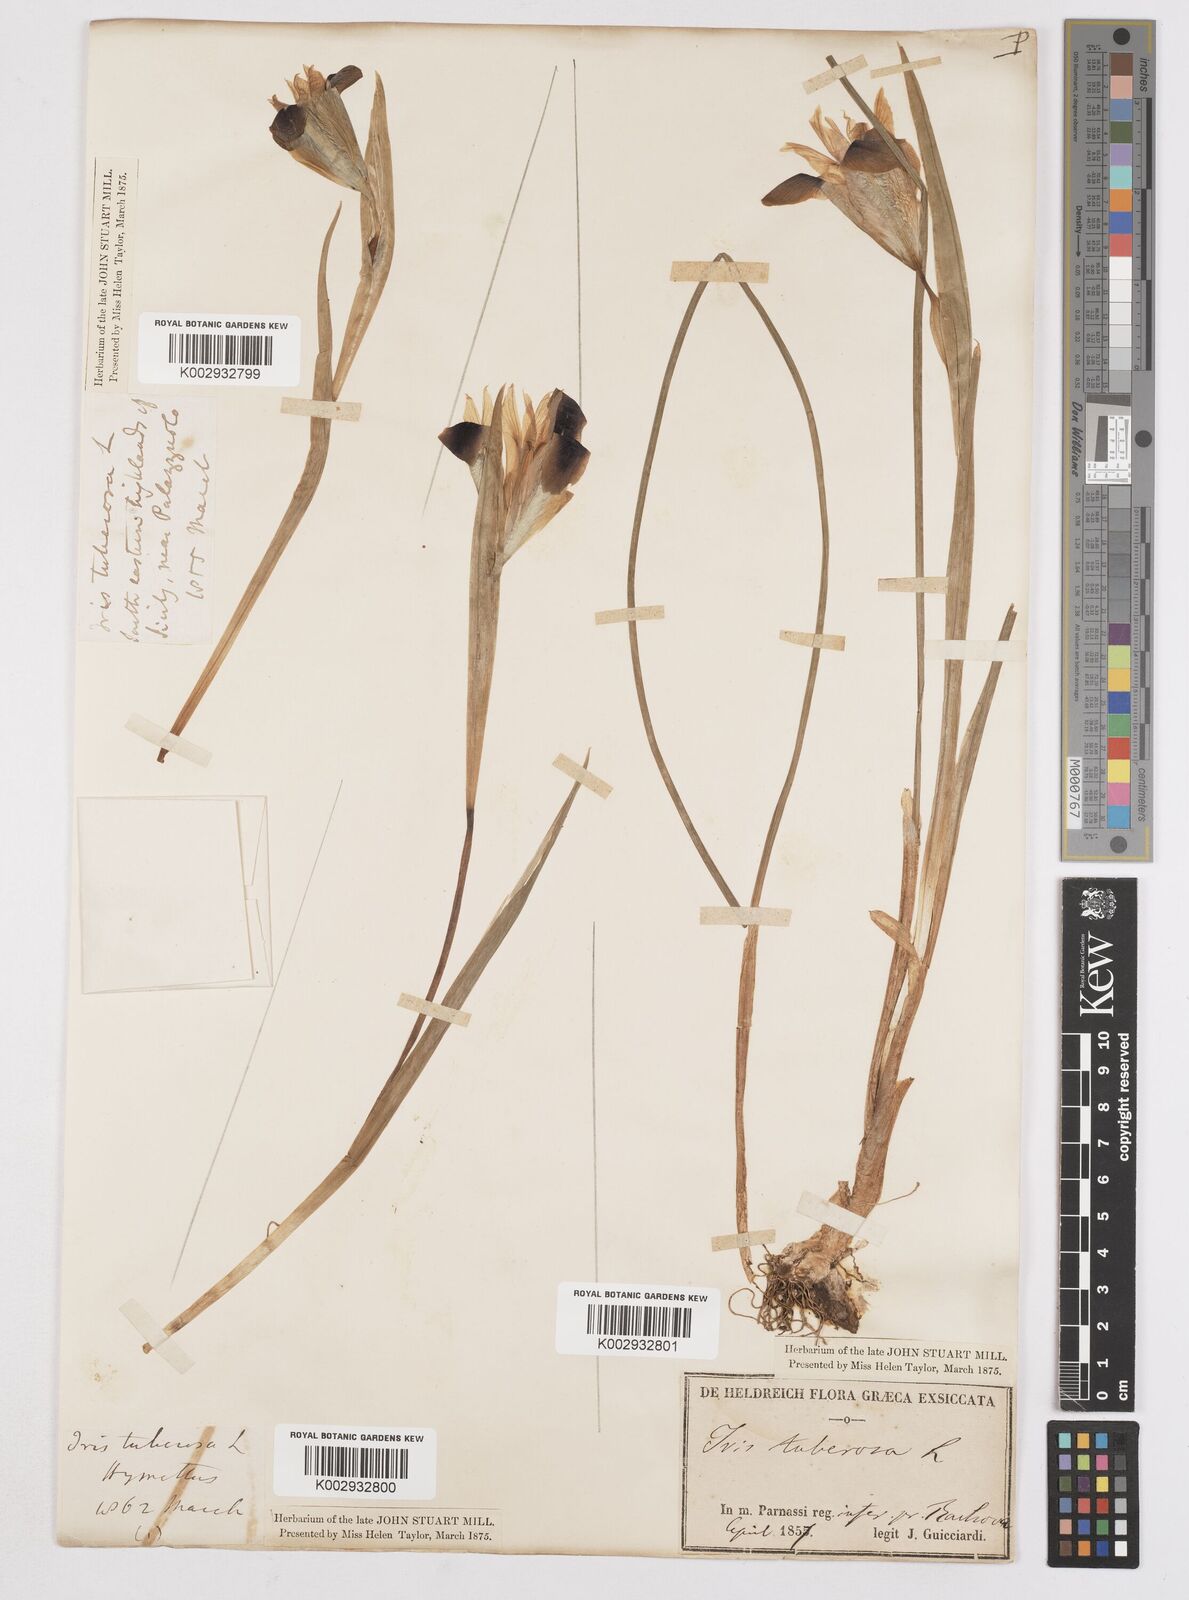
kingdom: Plantae
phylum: Tracheophyta
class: Liliopsida
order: Asparagales
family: Iridaceae
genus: Iris
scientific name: Iris tuberosa
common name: Snake's-head iris
